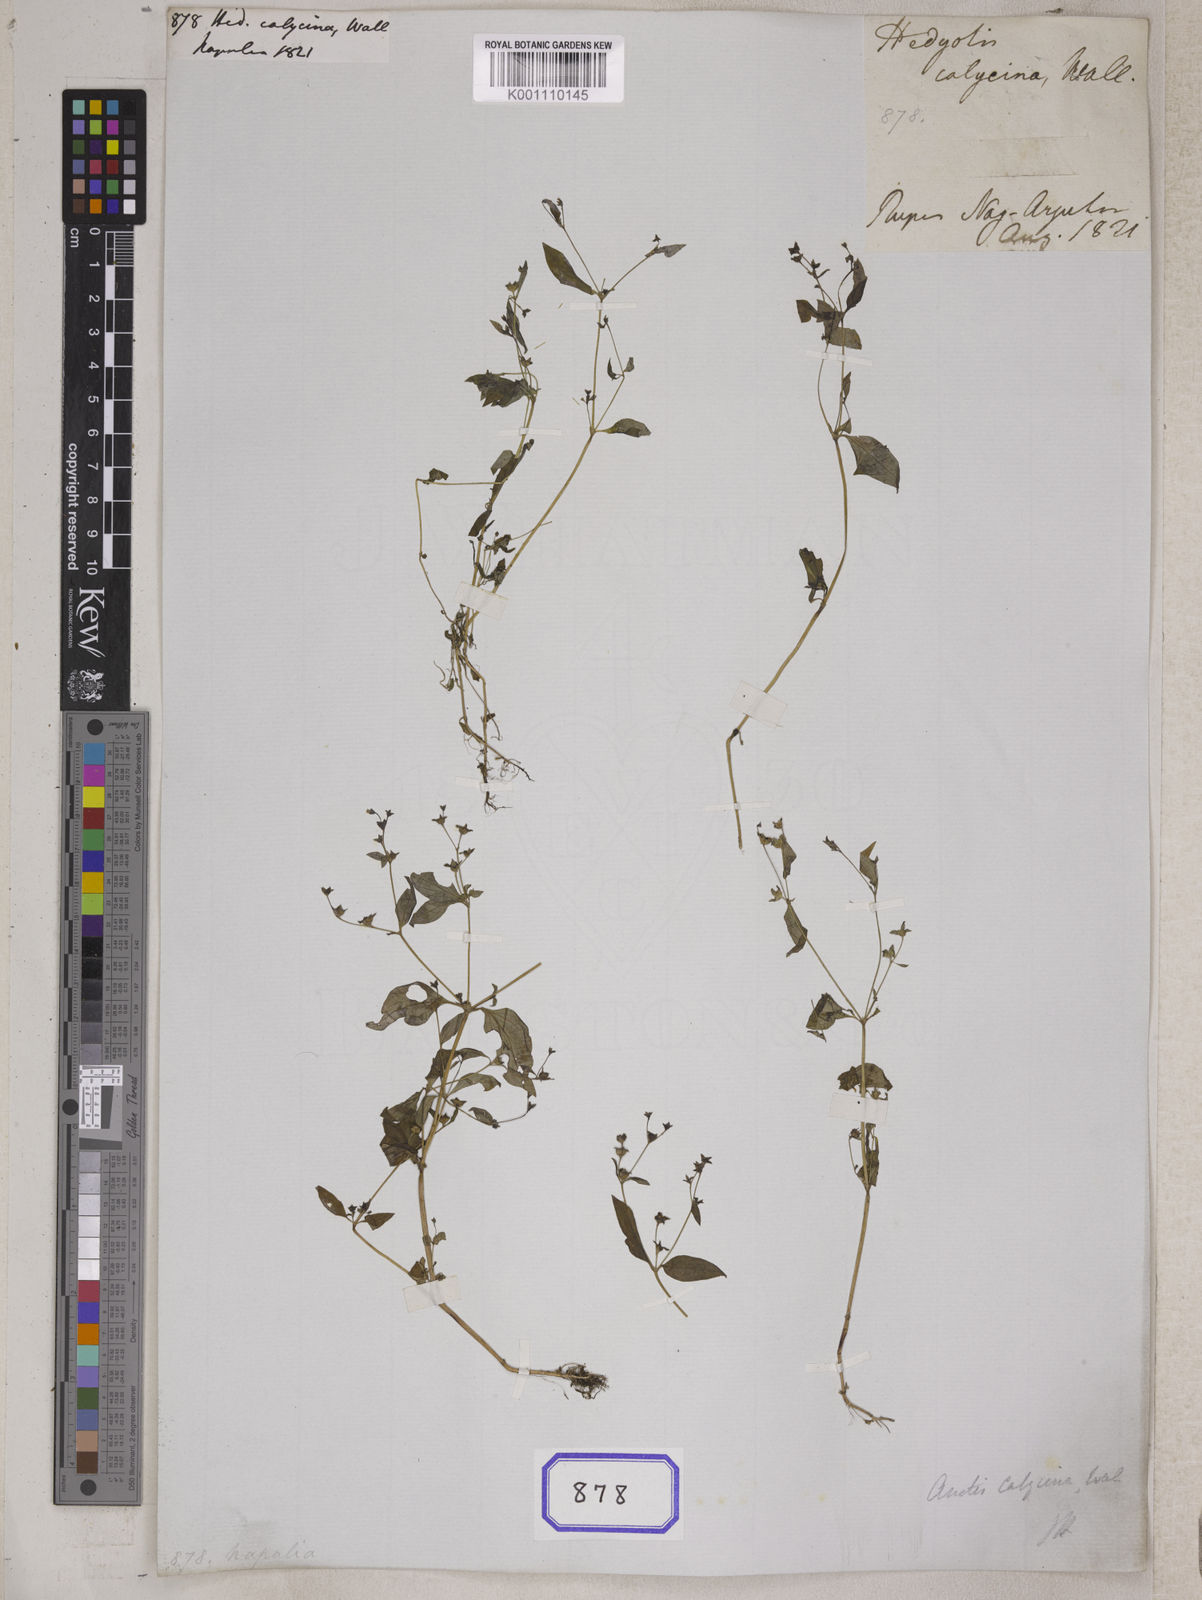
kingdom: Plantae
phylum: Tracheophyta
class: Magnoliopsida
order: Gentianales
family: Rubiaceae
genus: Neanotis
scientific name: Neanotis calycina
